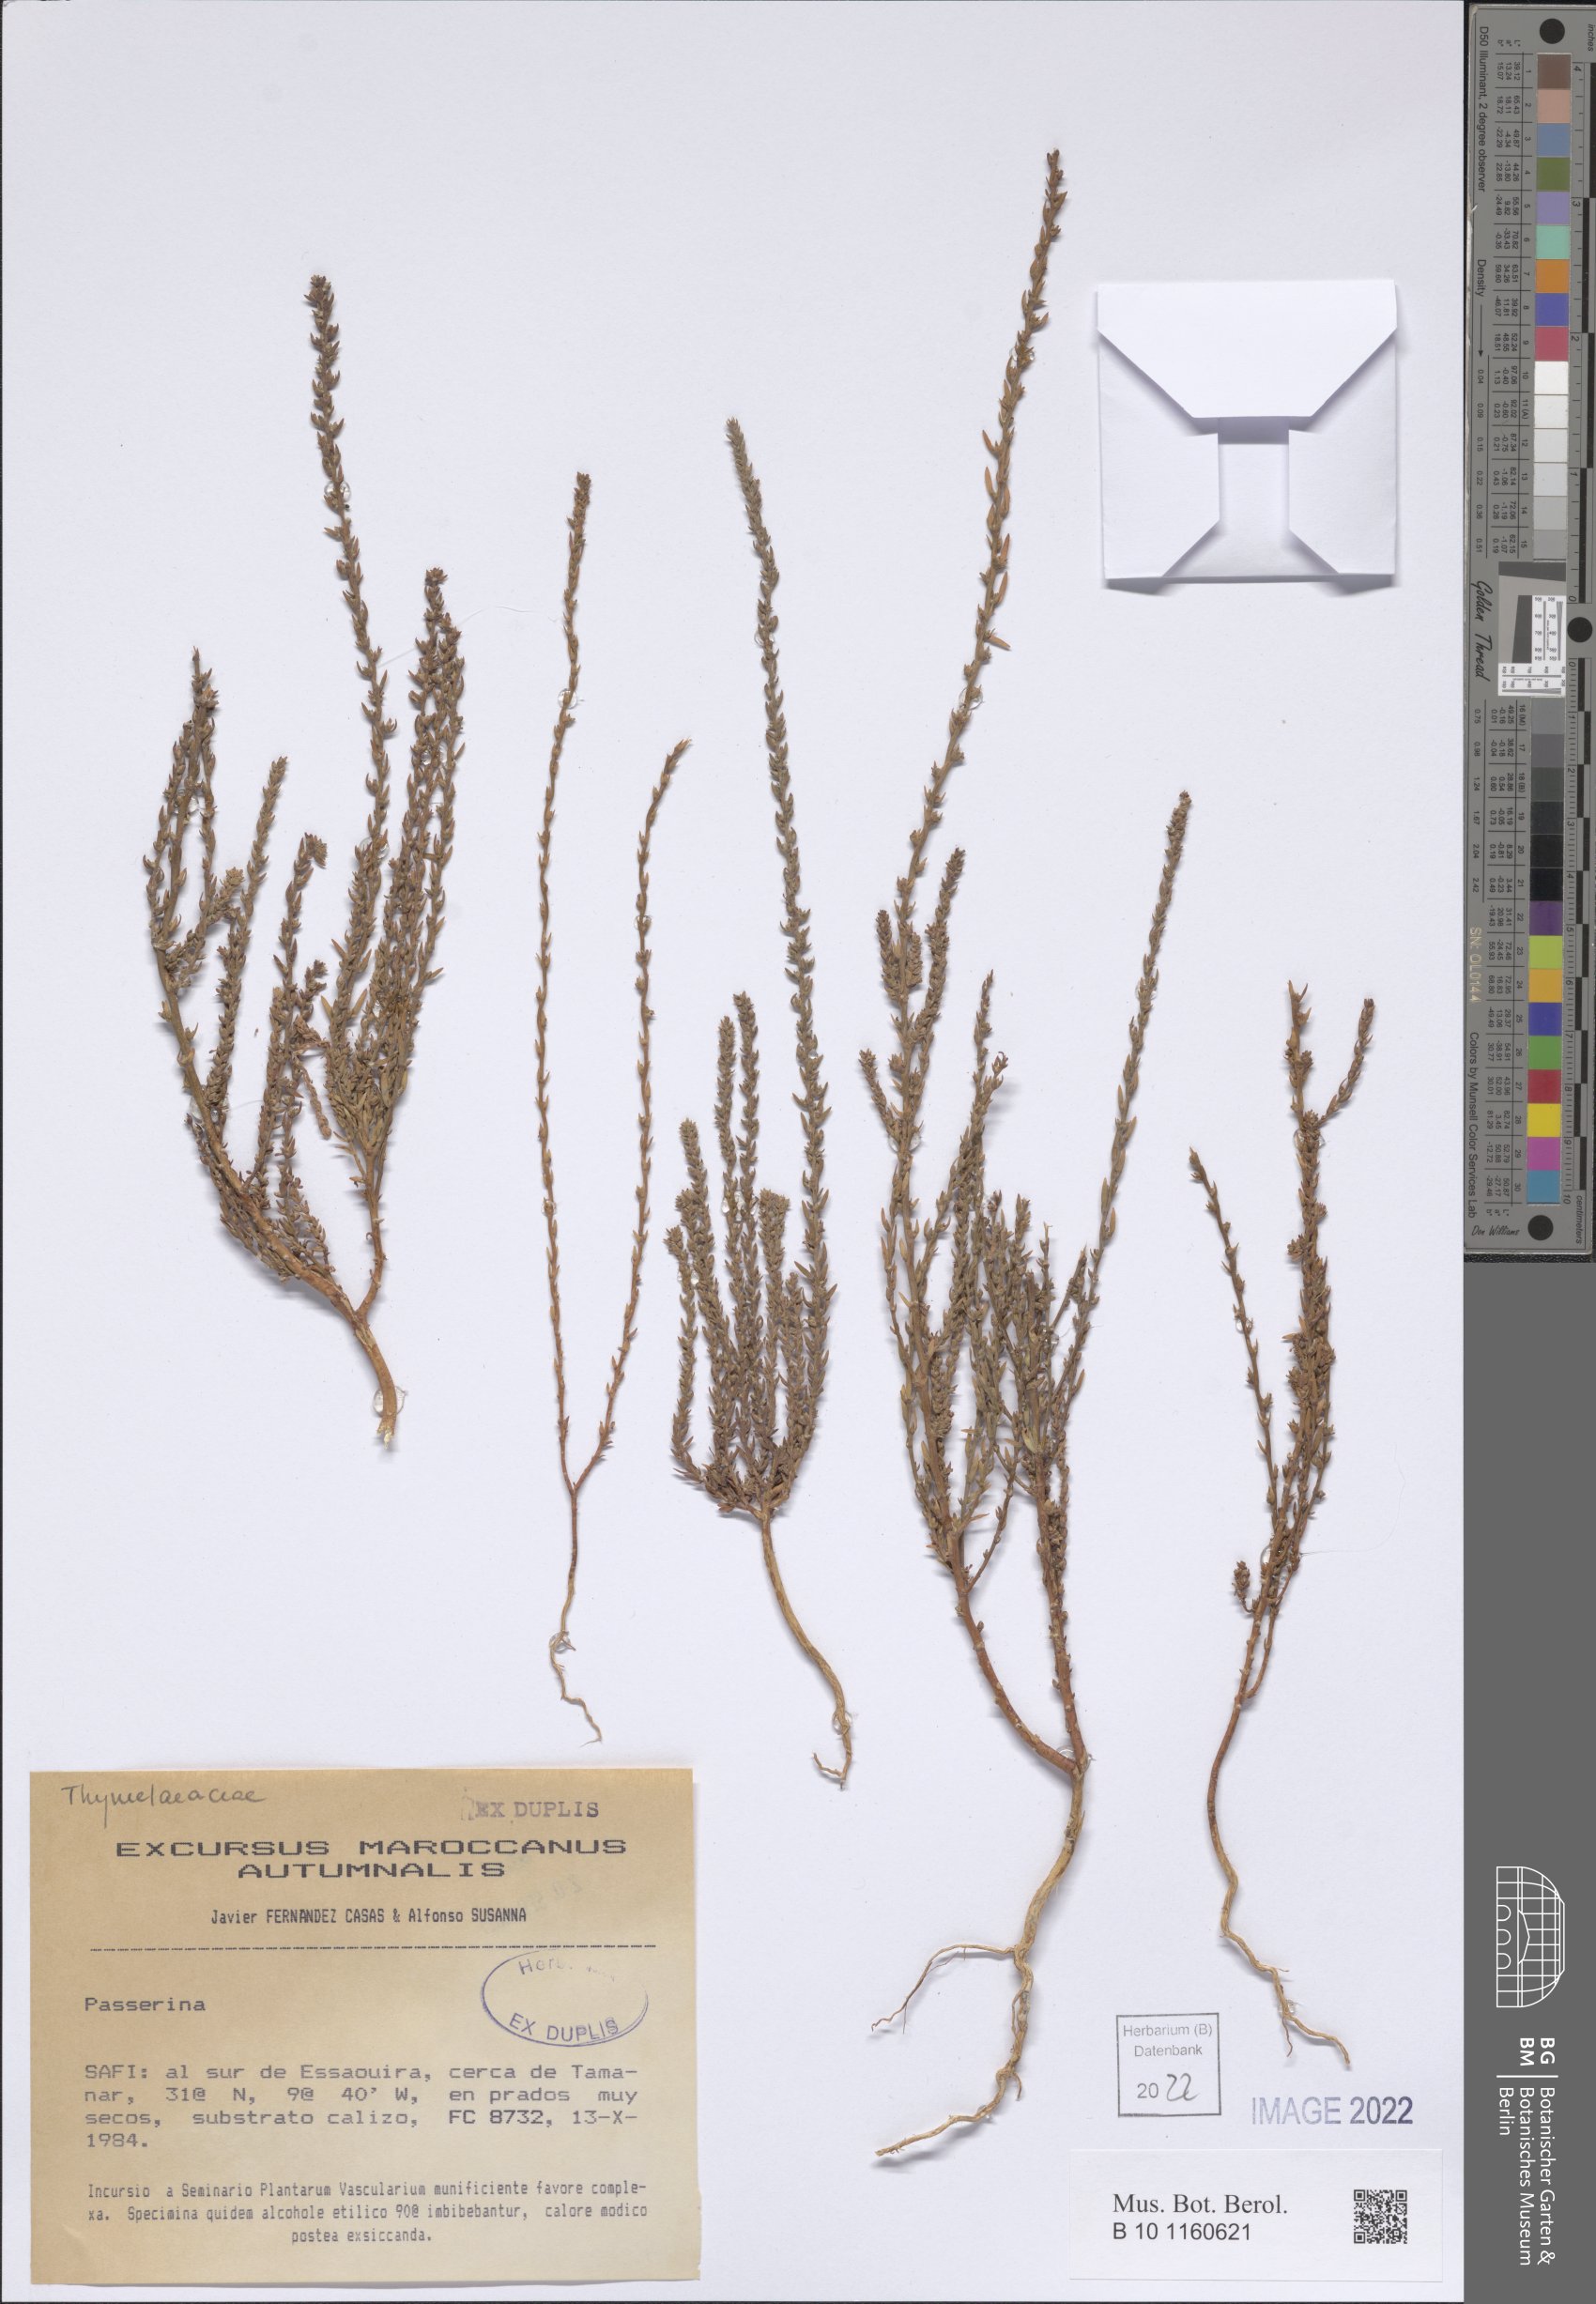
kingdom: Plantae
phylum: Tracheophyta
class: Magnoliopsida
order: Malvales
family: Thymelaeaceae
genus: Passerina
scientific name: Passerina
